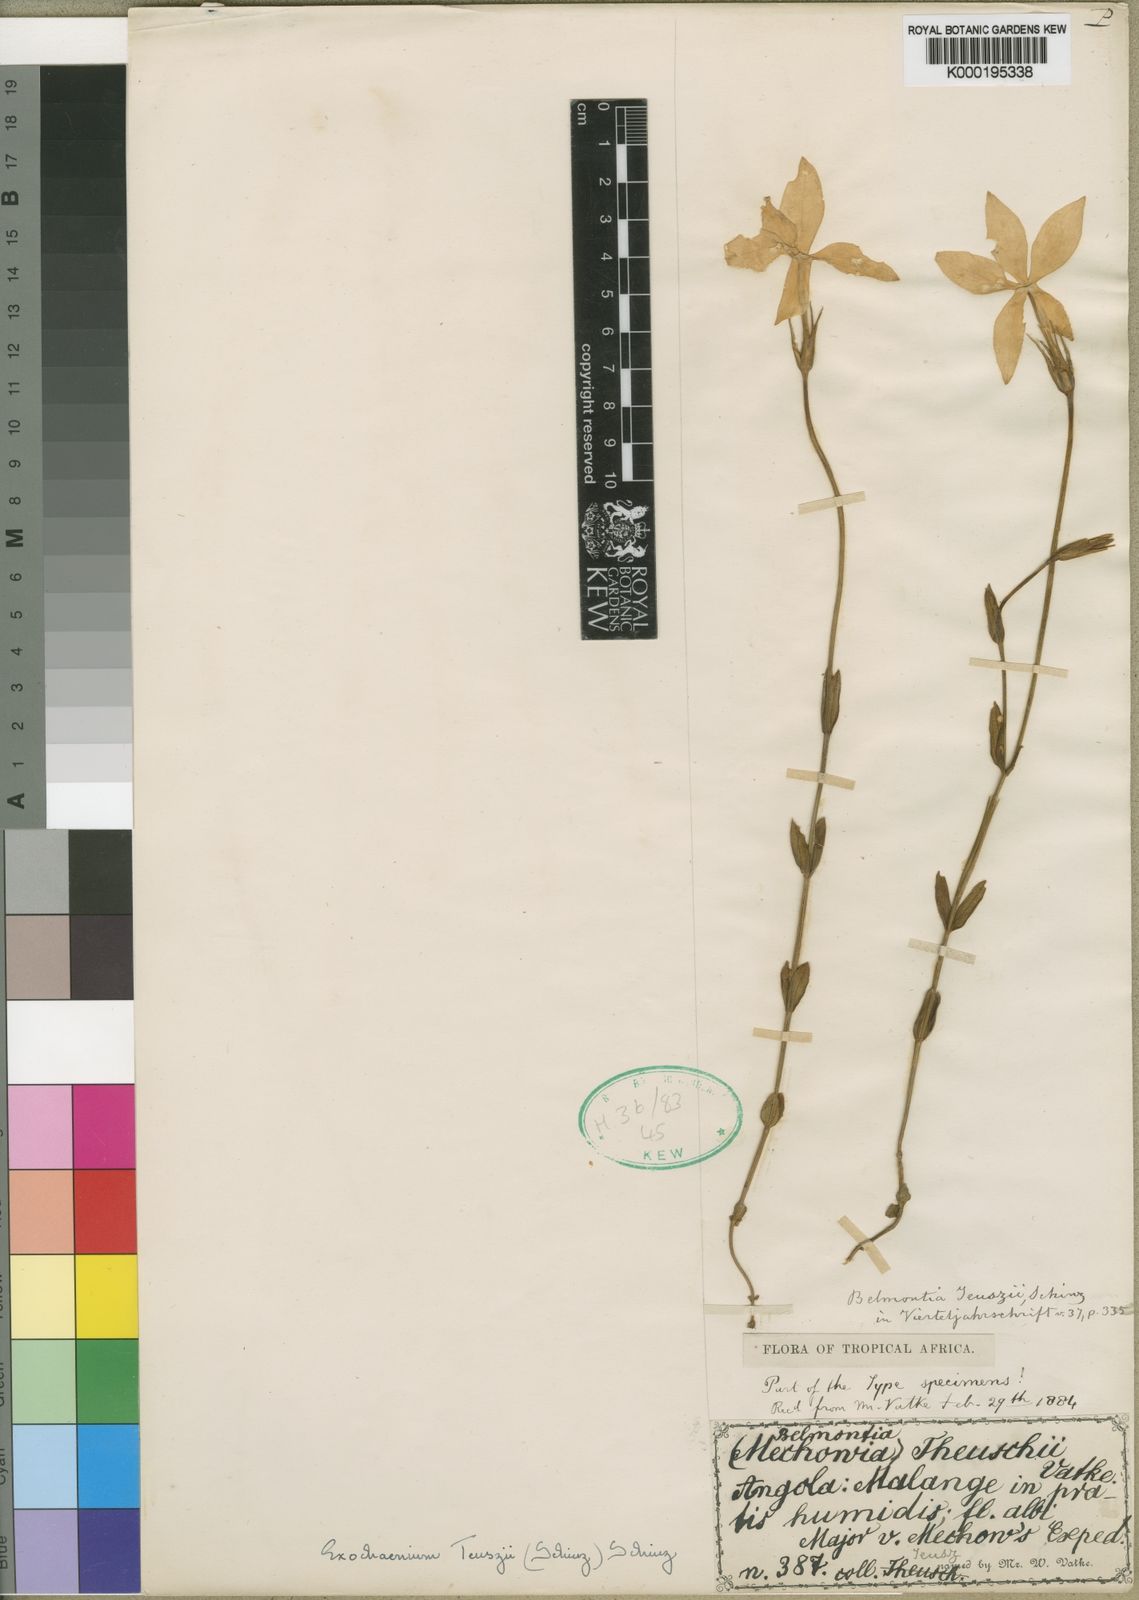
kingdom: Plantae
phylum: Tracheophyta
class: Magnoliopsida
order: Gentianales
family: Gentianaceae
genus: Sebaea
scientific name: Sebaea
